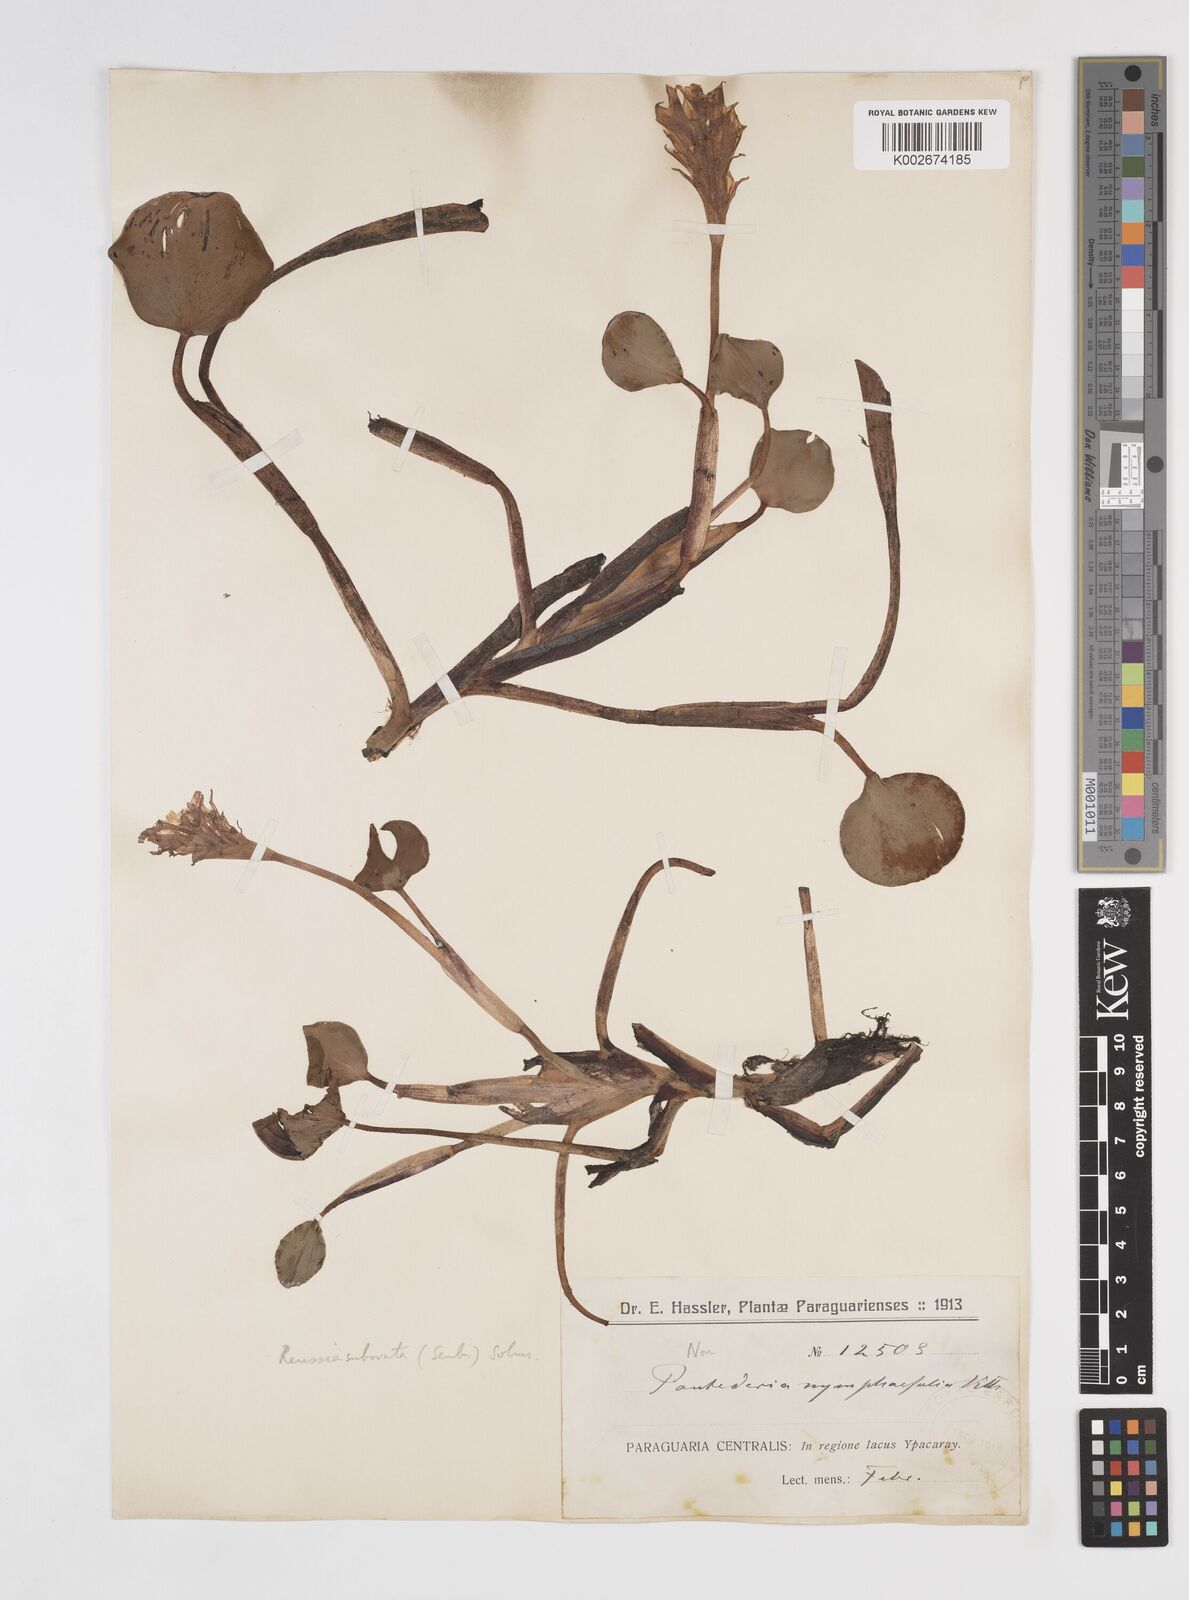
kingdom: Plantae
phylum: Tracheophyta
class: Liliopsida
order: Commelinales
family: Pontederiaceae
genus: Pontederia
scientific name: Pontederia subovata
